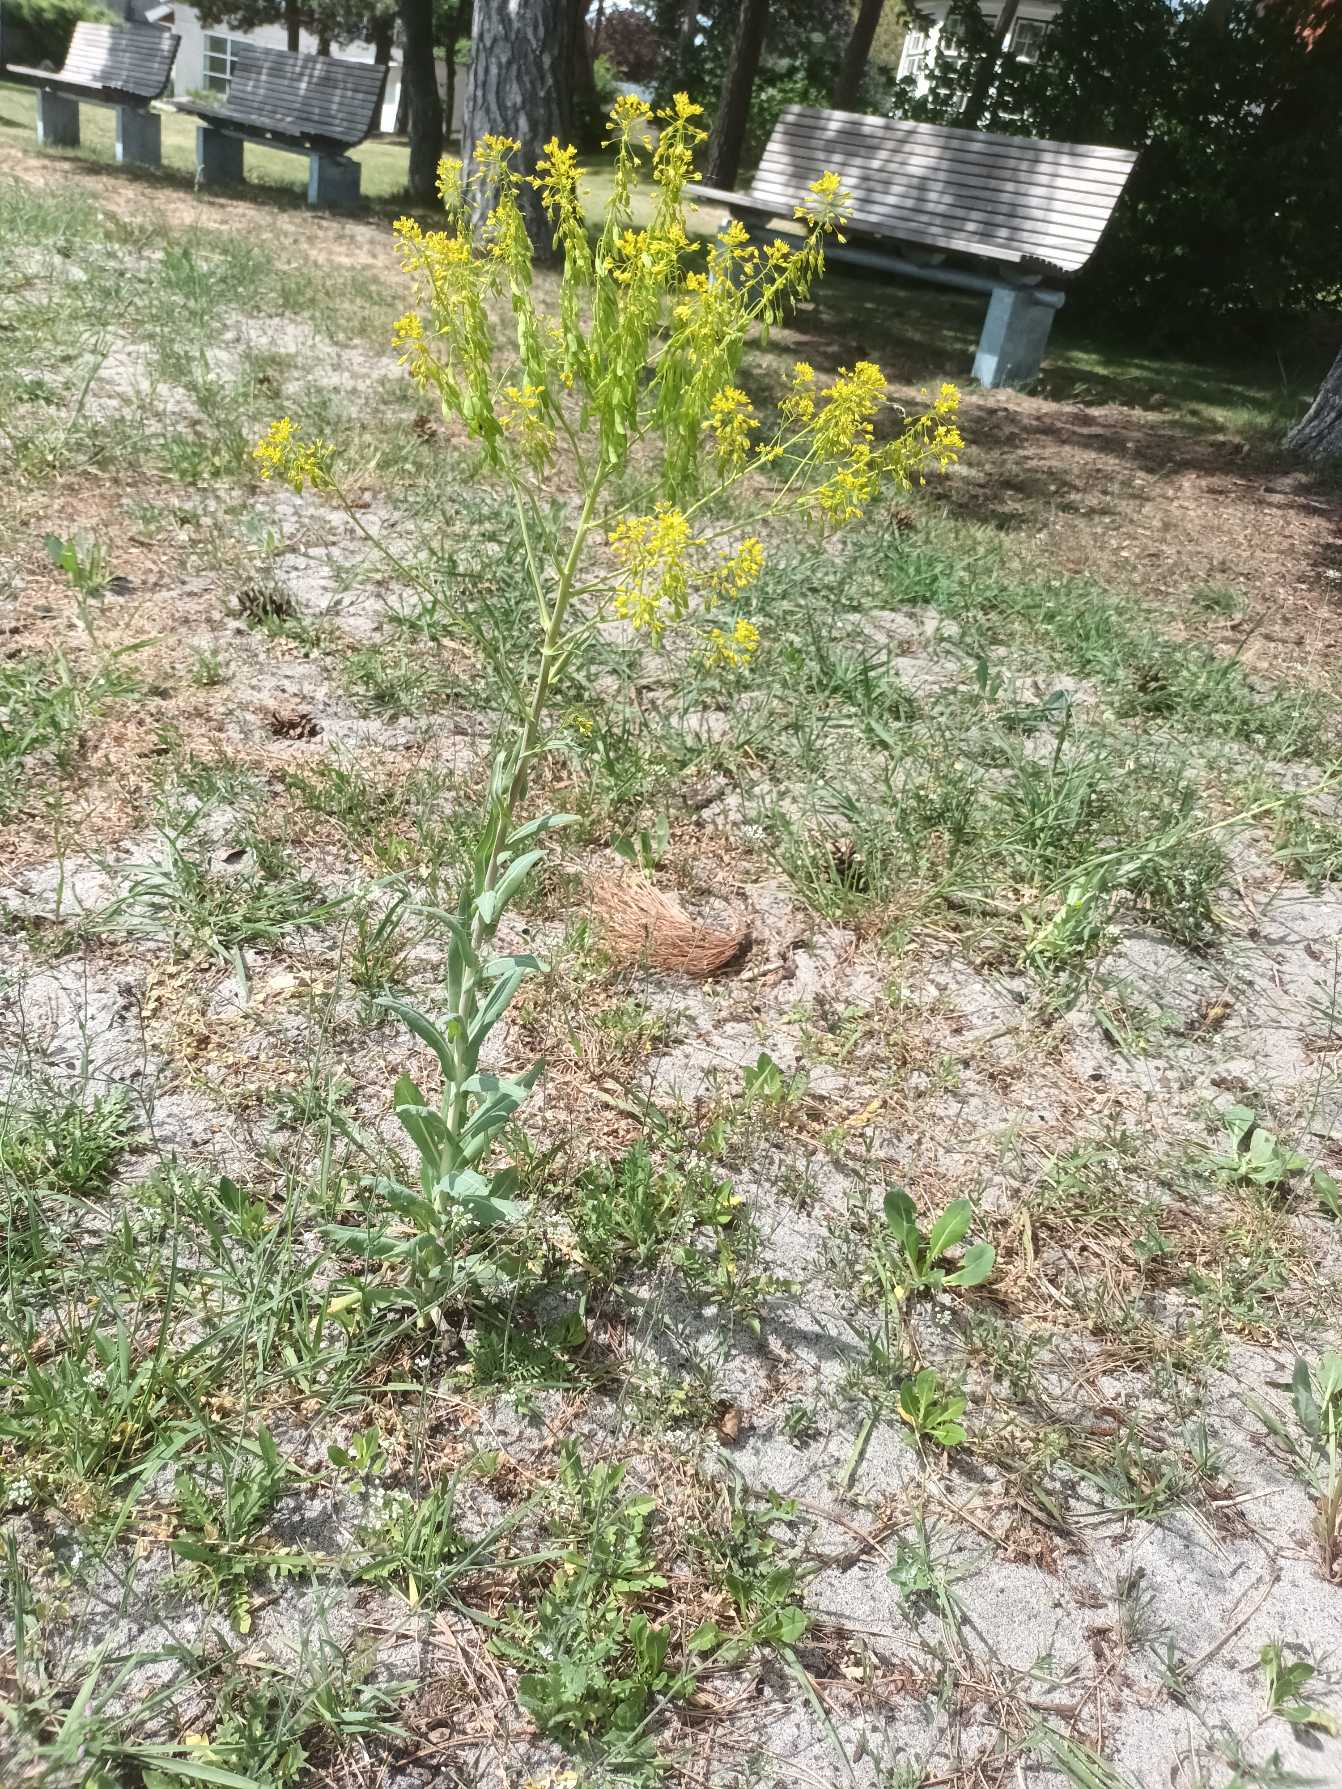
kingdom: Plantae
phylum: Tracheophyta
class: Magnoliopsida
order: Brassicales
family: Brassicaceae
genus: Isatis
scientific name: Isatis tinctoria
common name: Farve-vajd
